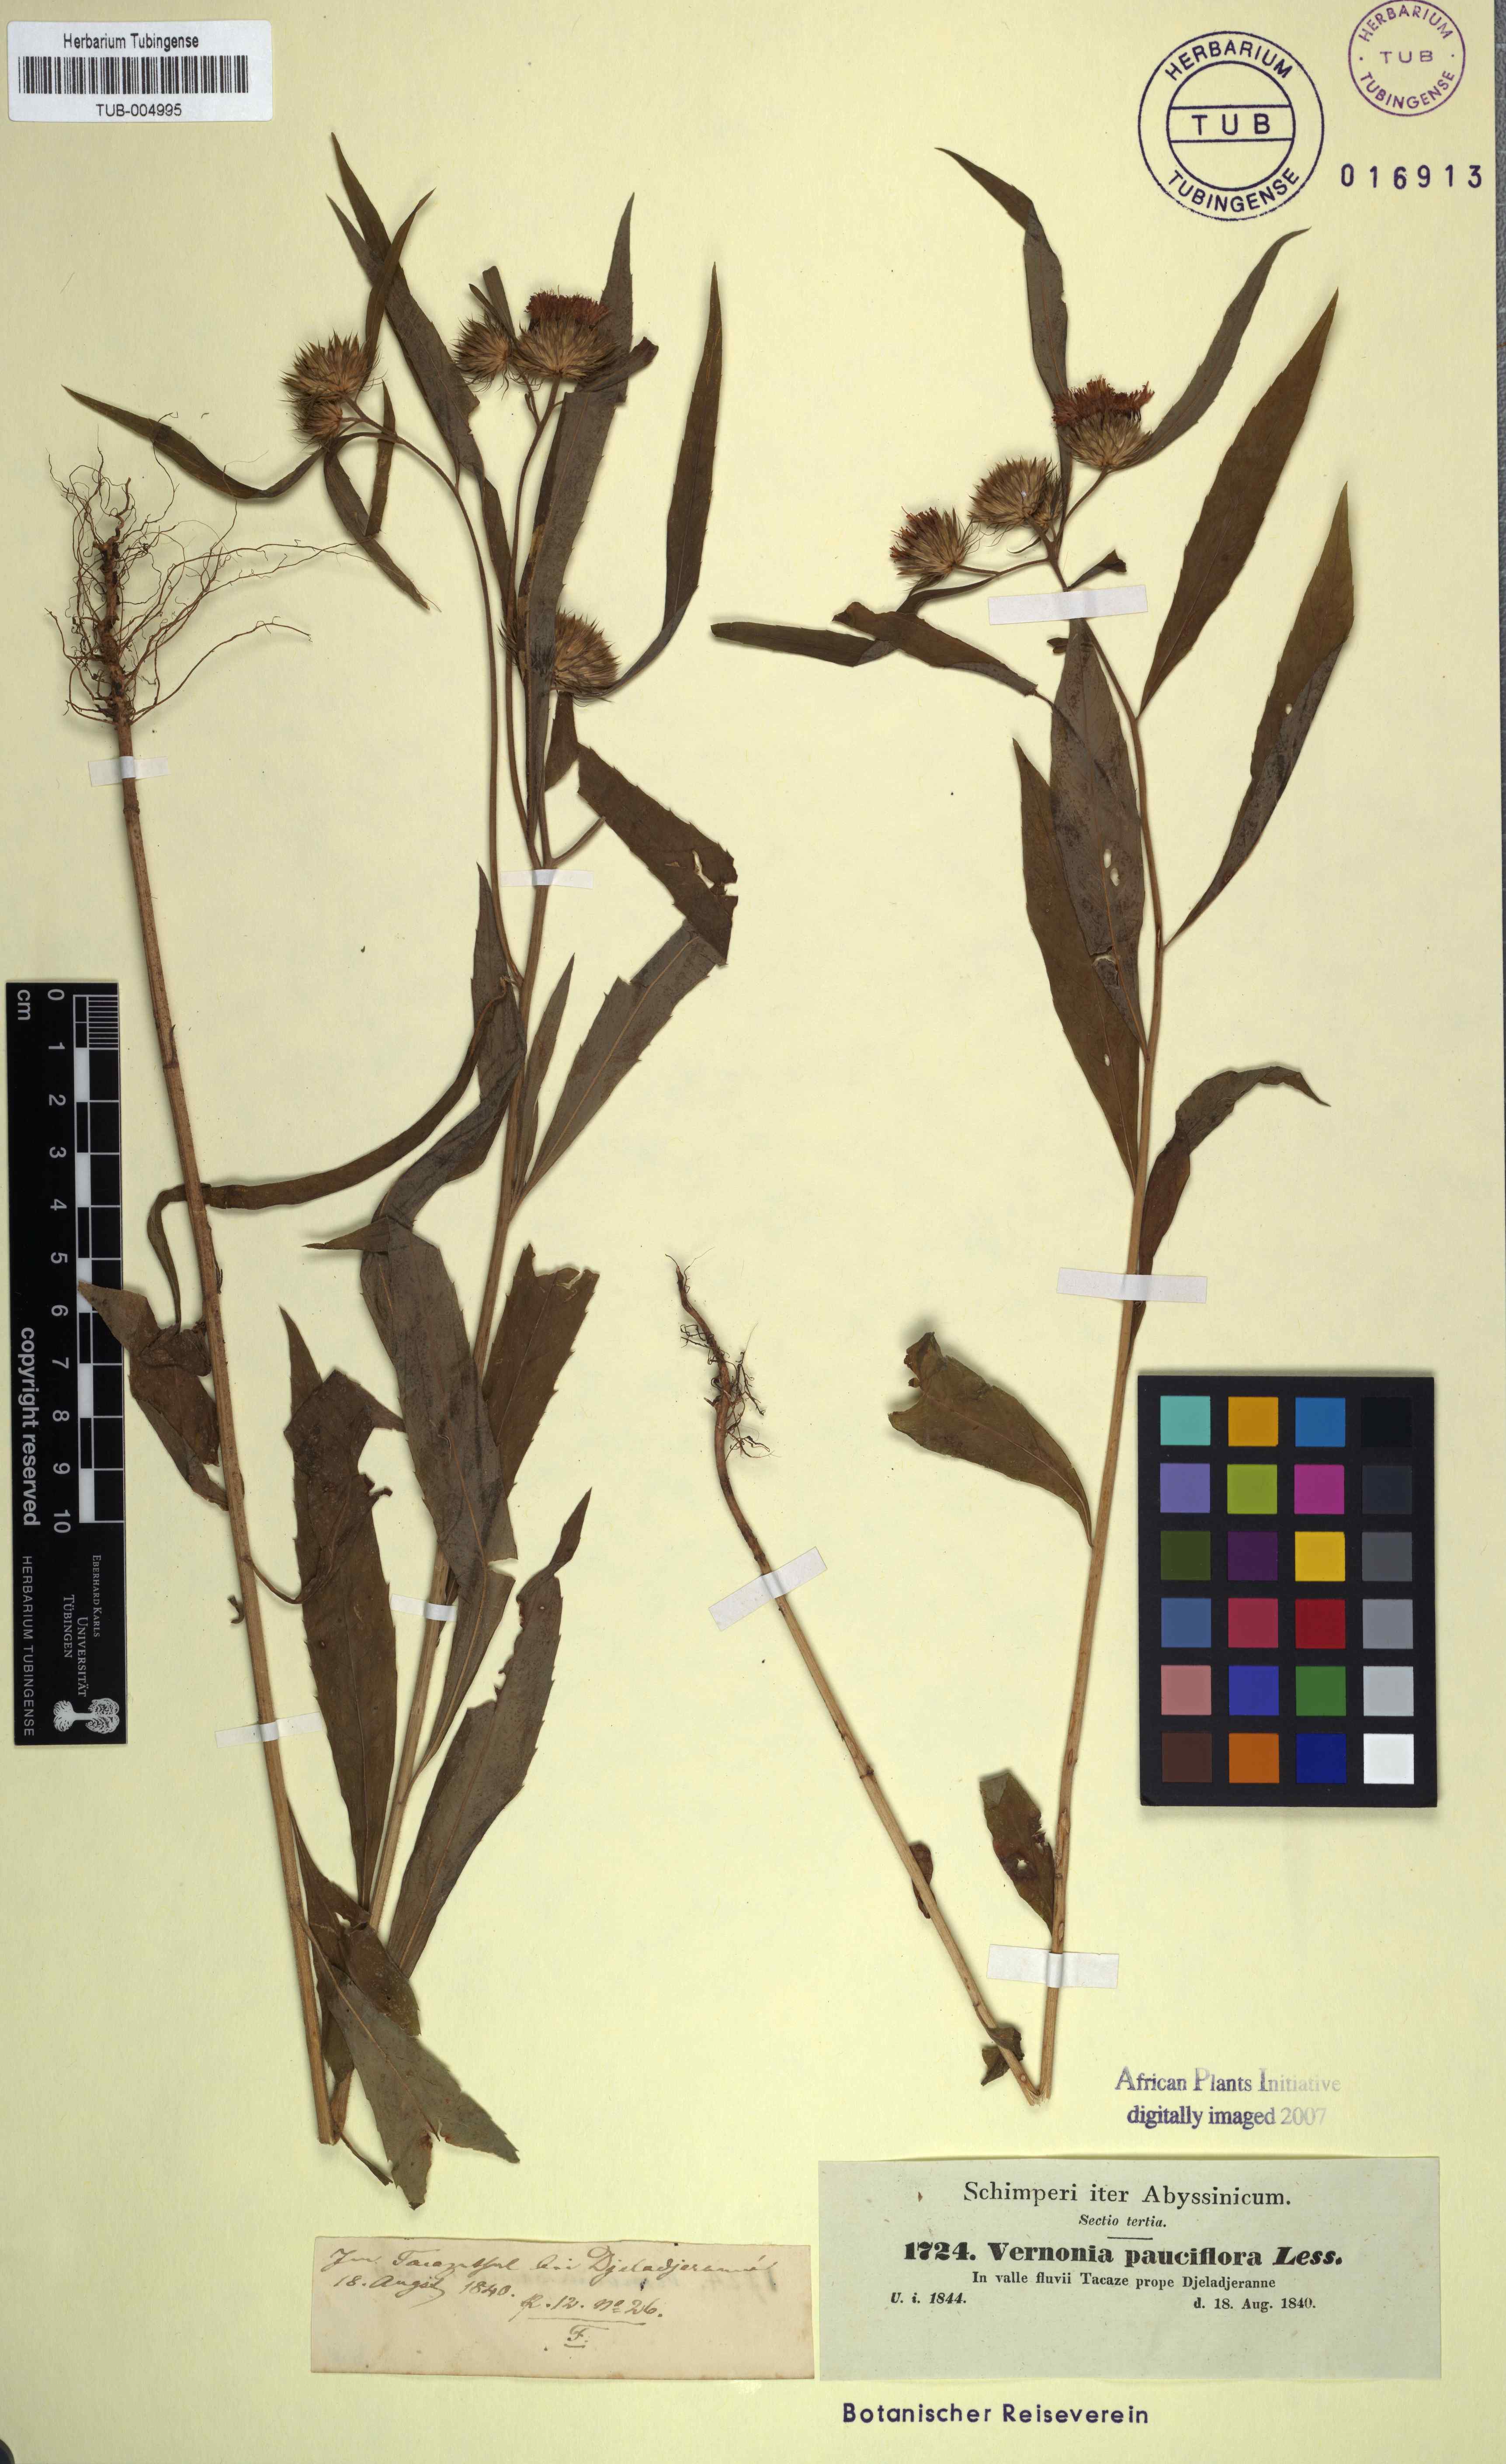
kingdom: Plantae
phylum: Tracheophyta
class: Magnoliopsida
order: Asterales
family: Asteraceae
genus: Vernonia
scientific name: Vernonia galamensis
